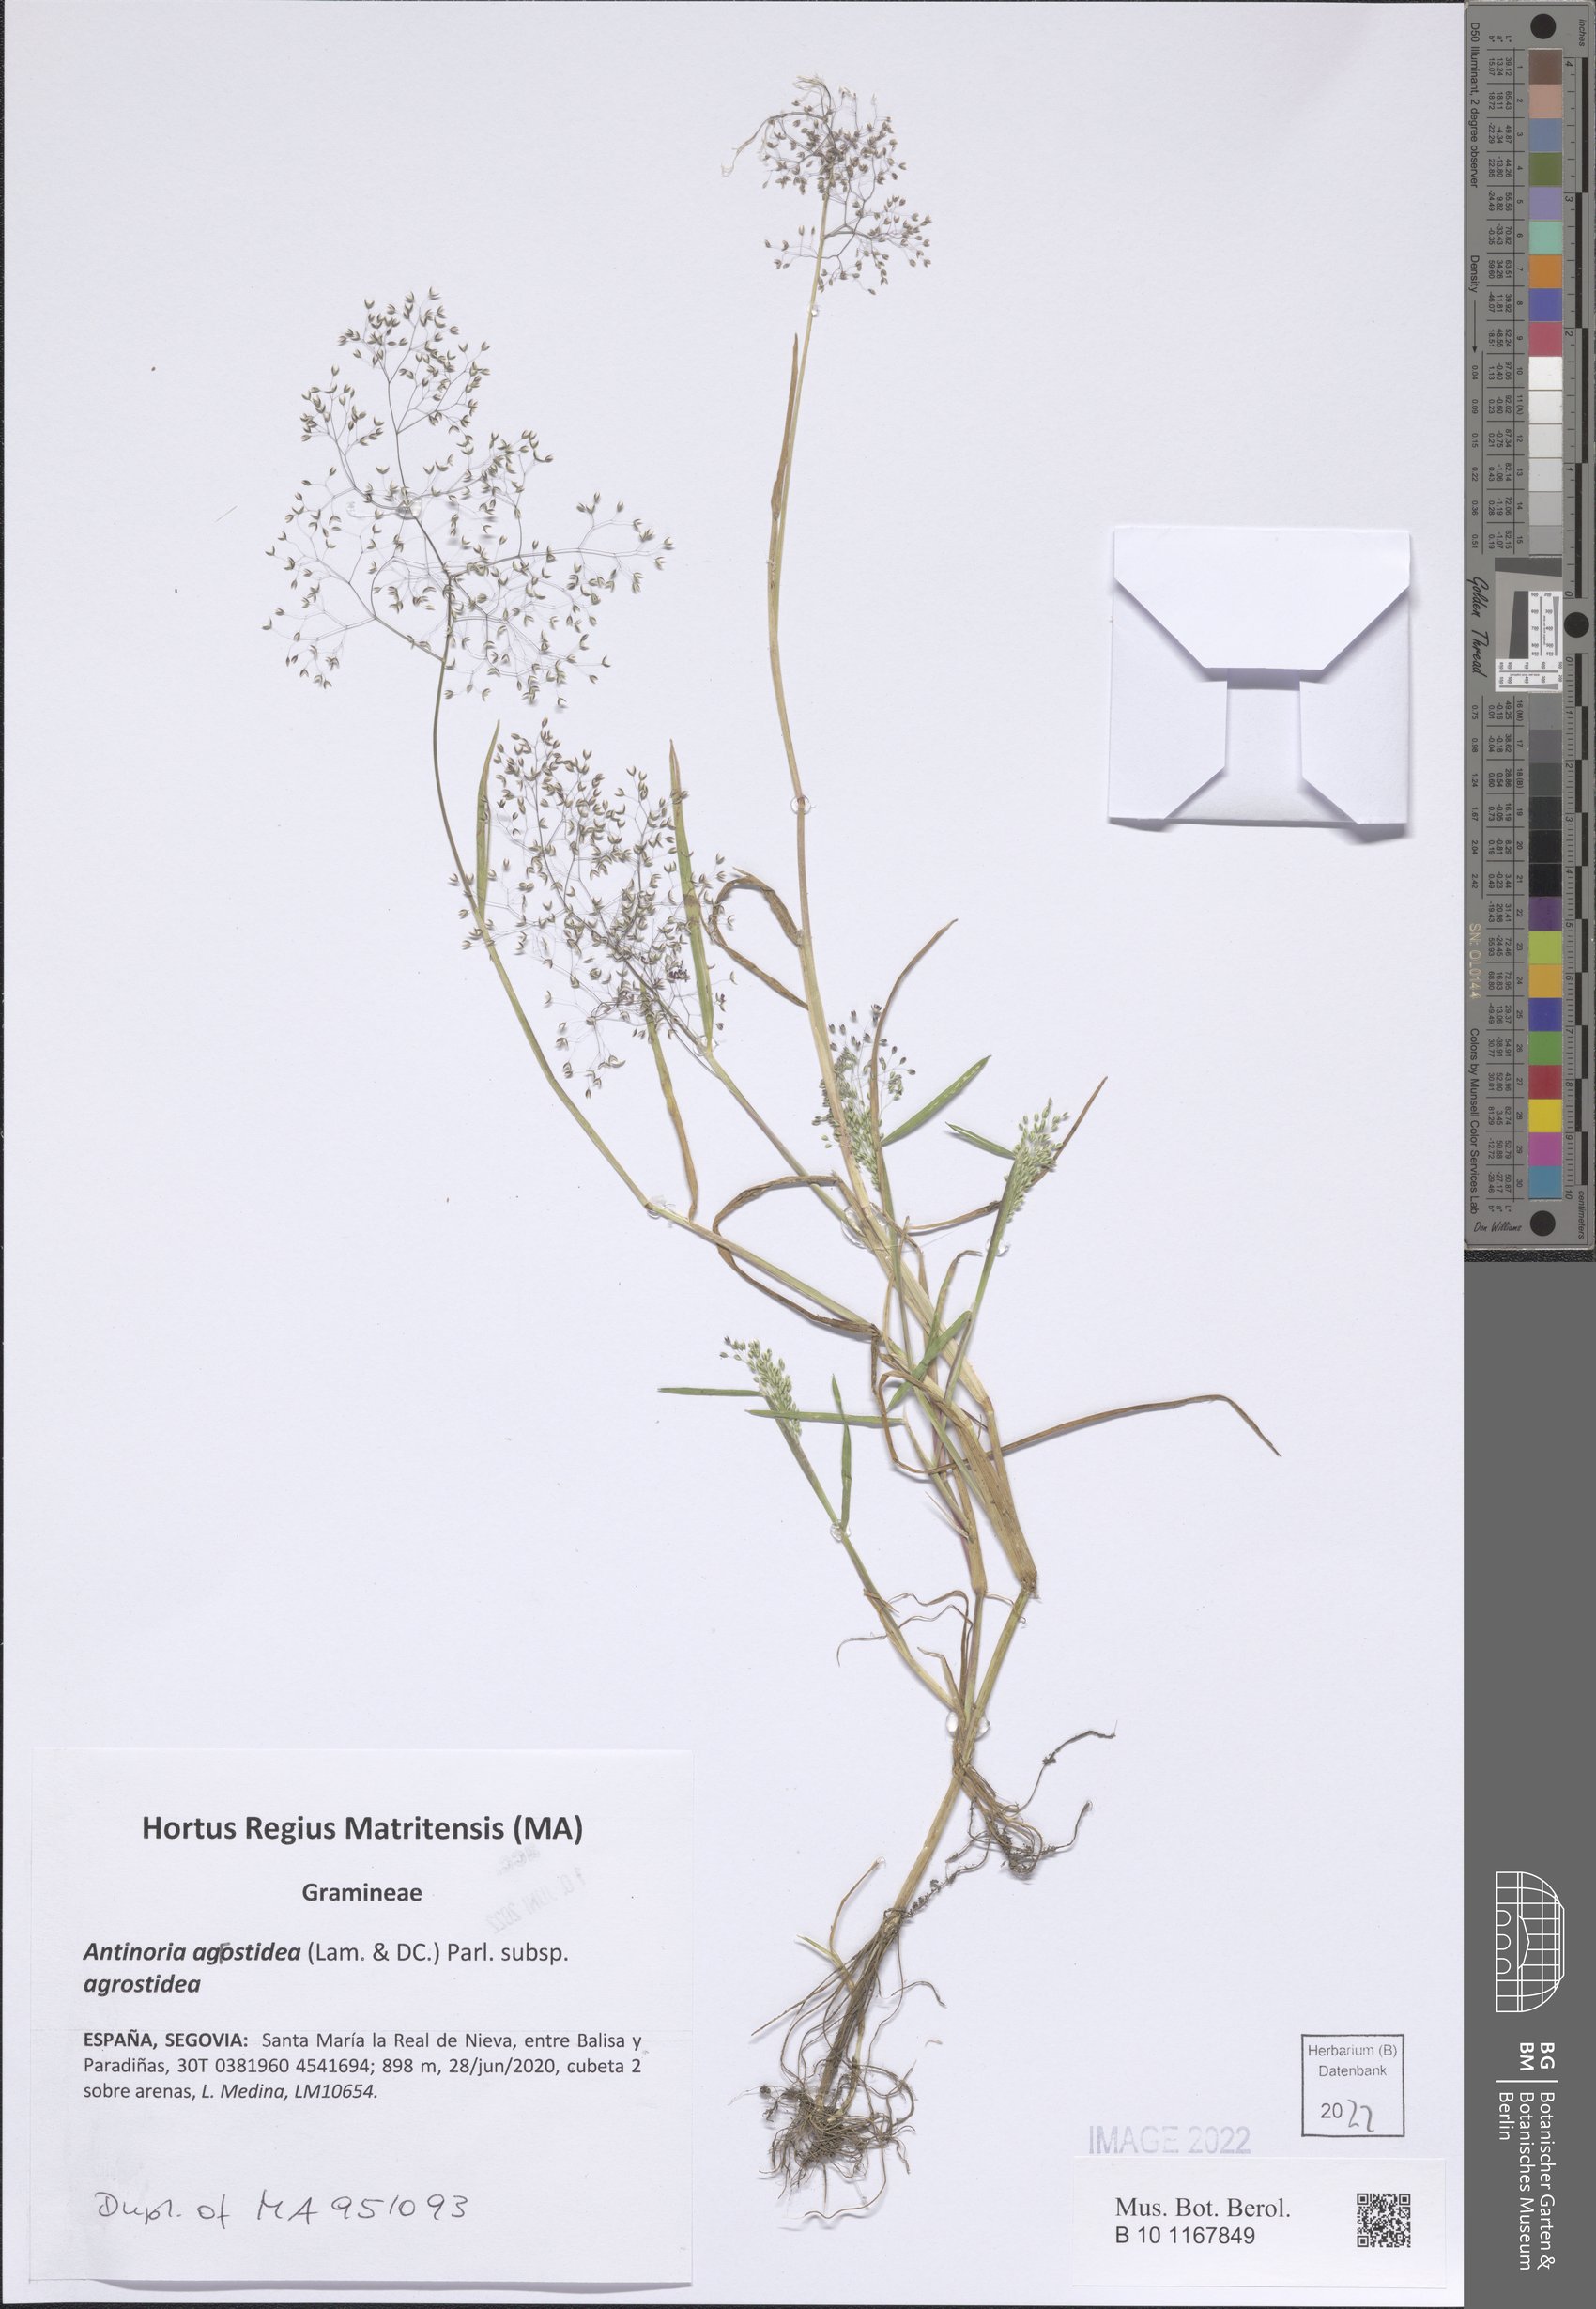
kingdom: Plantae
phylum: Tracheophyta
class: Liliopsida
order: Poales
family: Poaceae
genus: Antinoria
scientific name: Antinoria agrostidea
